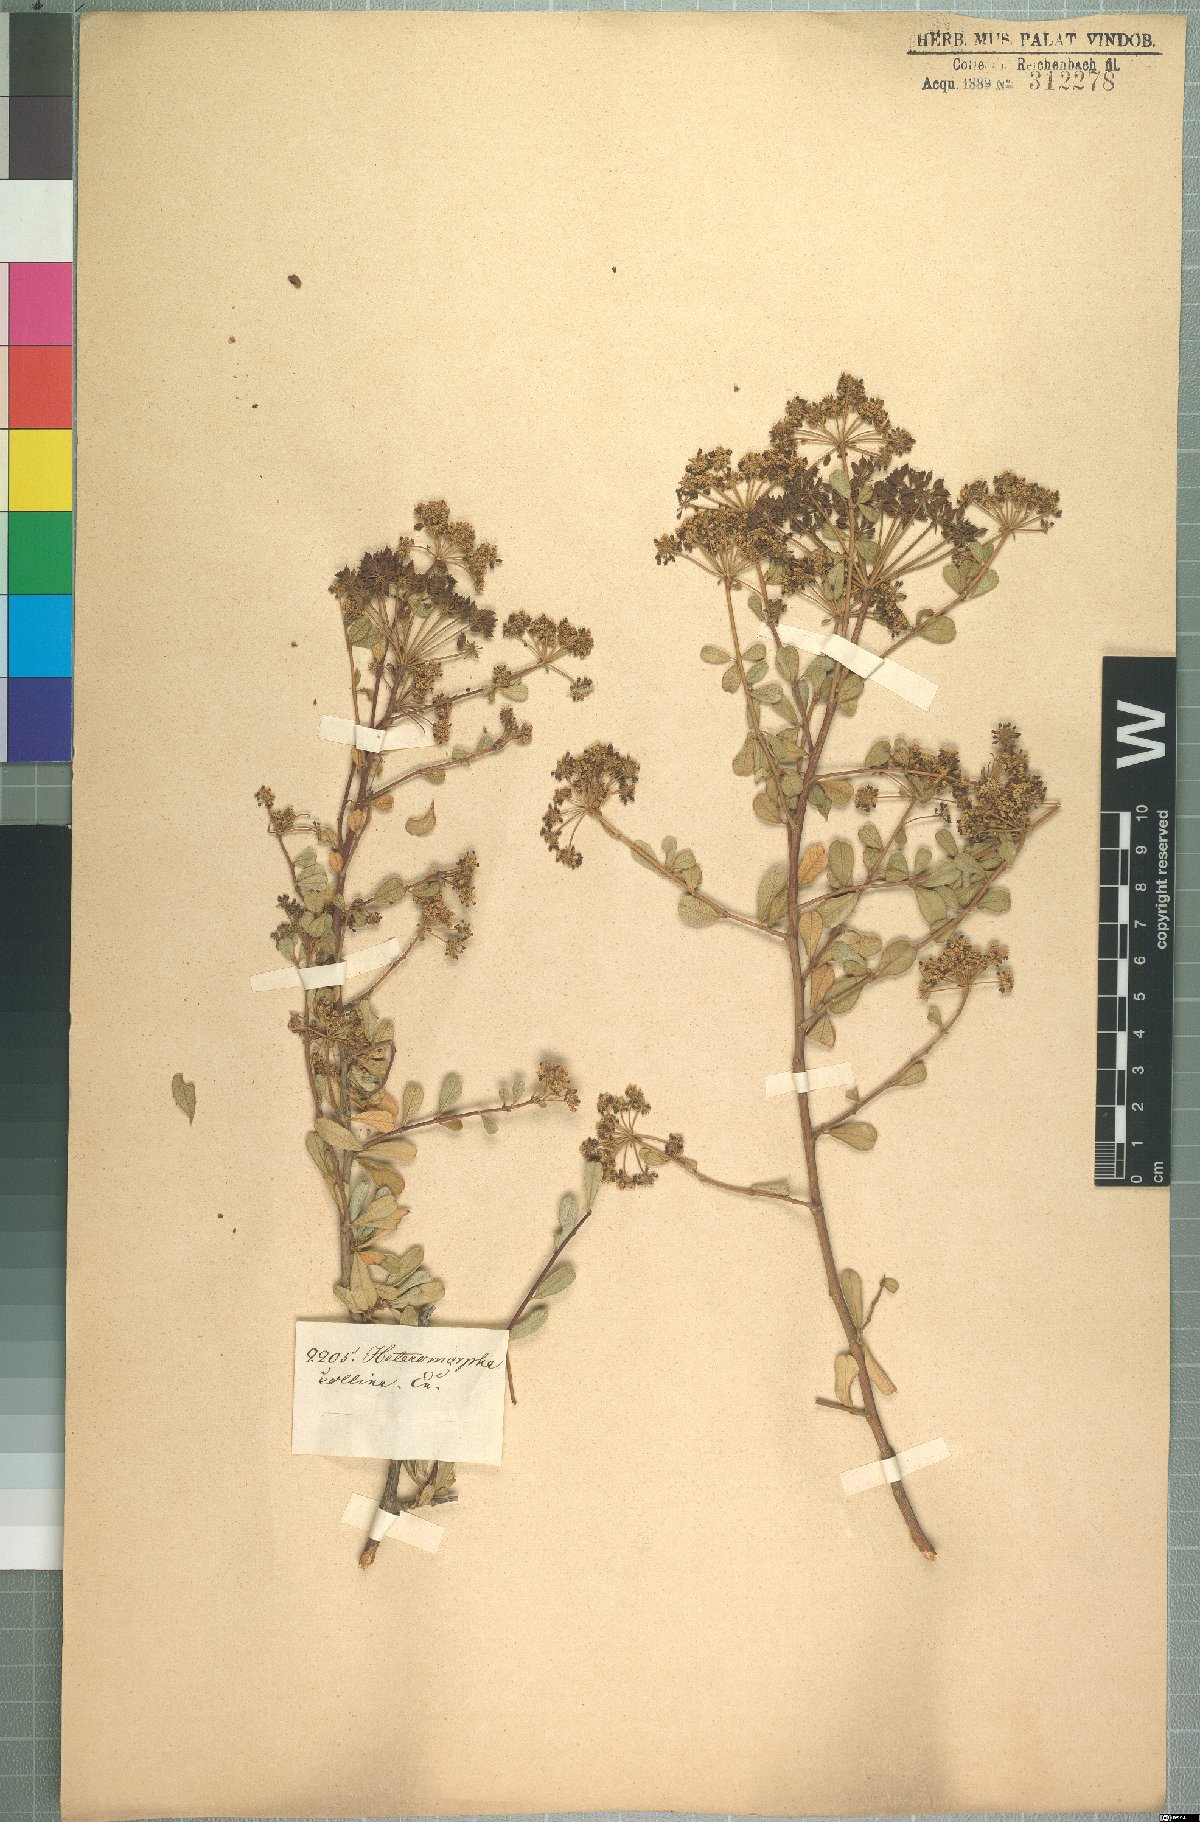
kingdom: Plantae
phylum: Tracheophyta
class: Magnoliopsida
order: Apiales
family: Apiaceae
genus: Heteromorpha
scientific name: Heteromorpha arborescens
